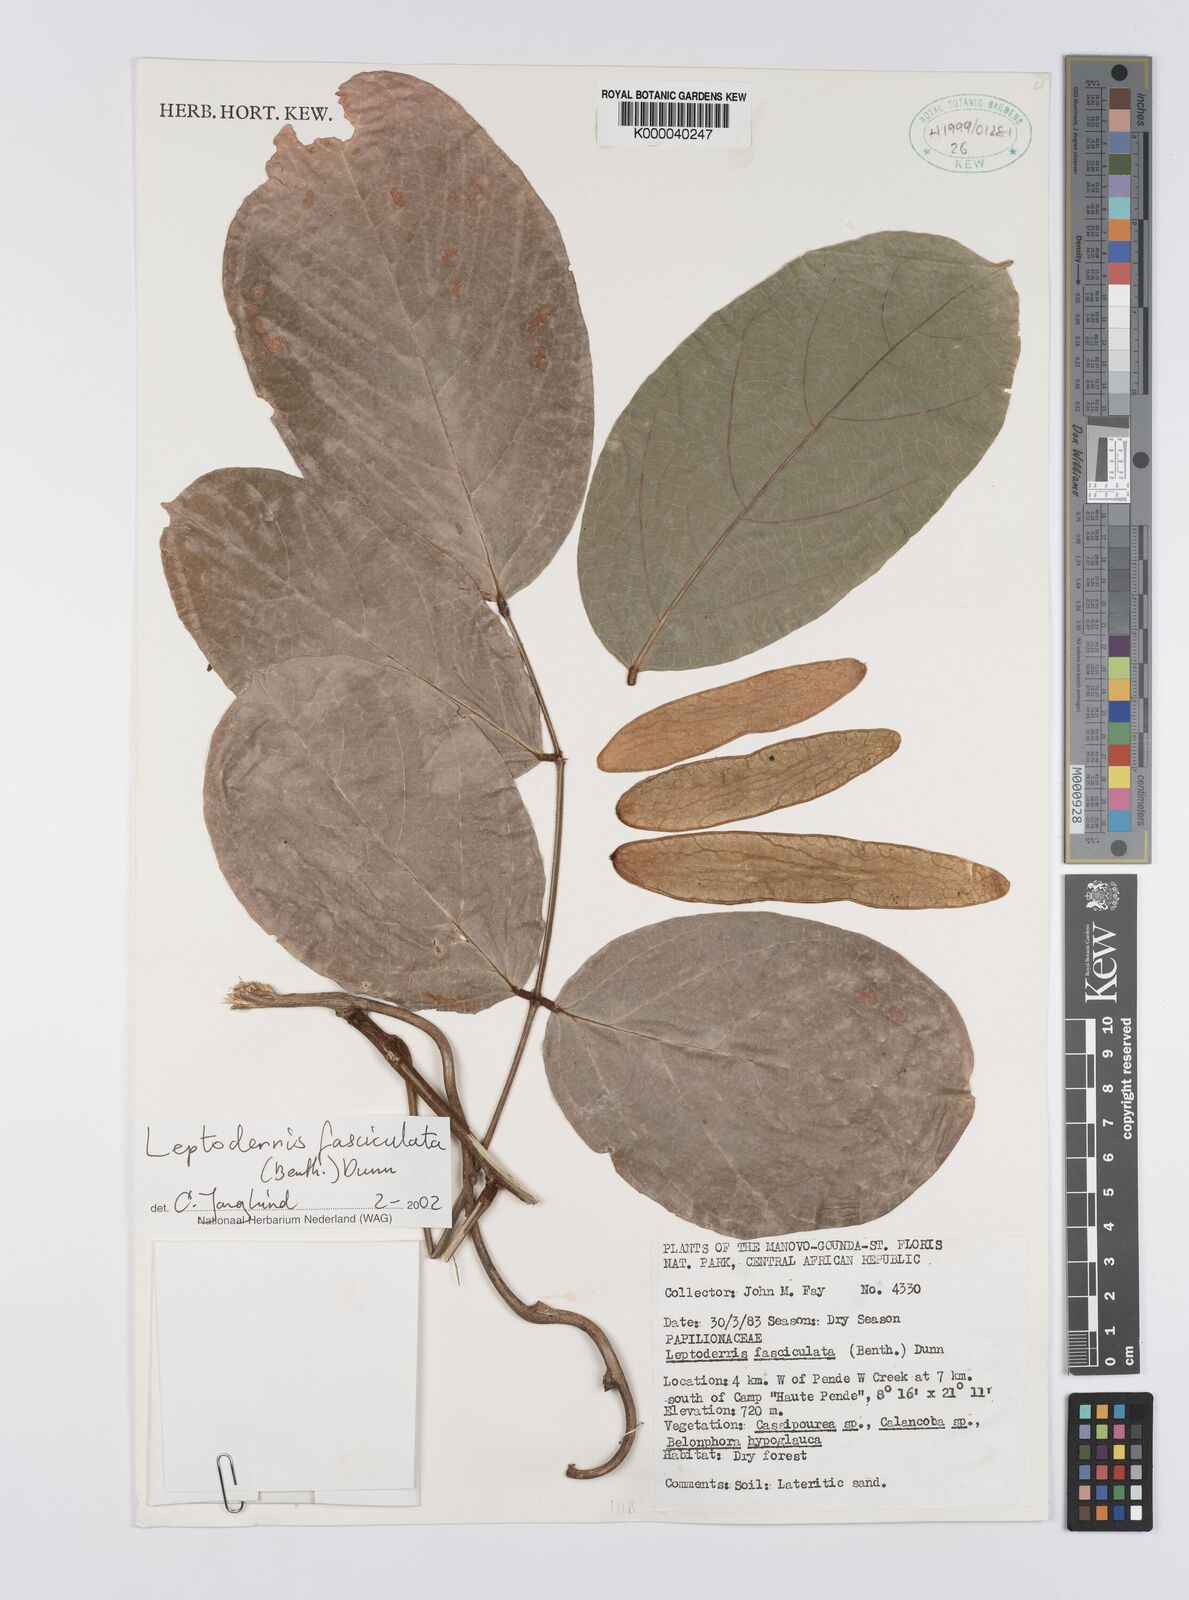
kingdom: Plantae
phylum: Tracheophyta
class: Magnoliopsida
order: Fabales
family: Fabaceae
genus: Leptoderris
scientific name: Leptoderris fasciculata
